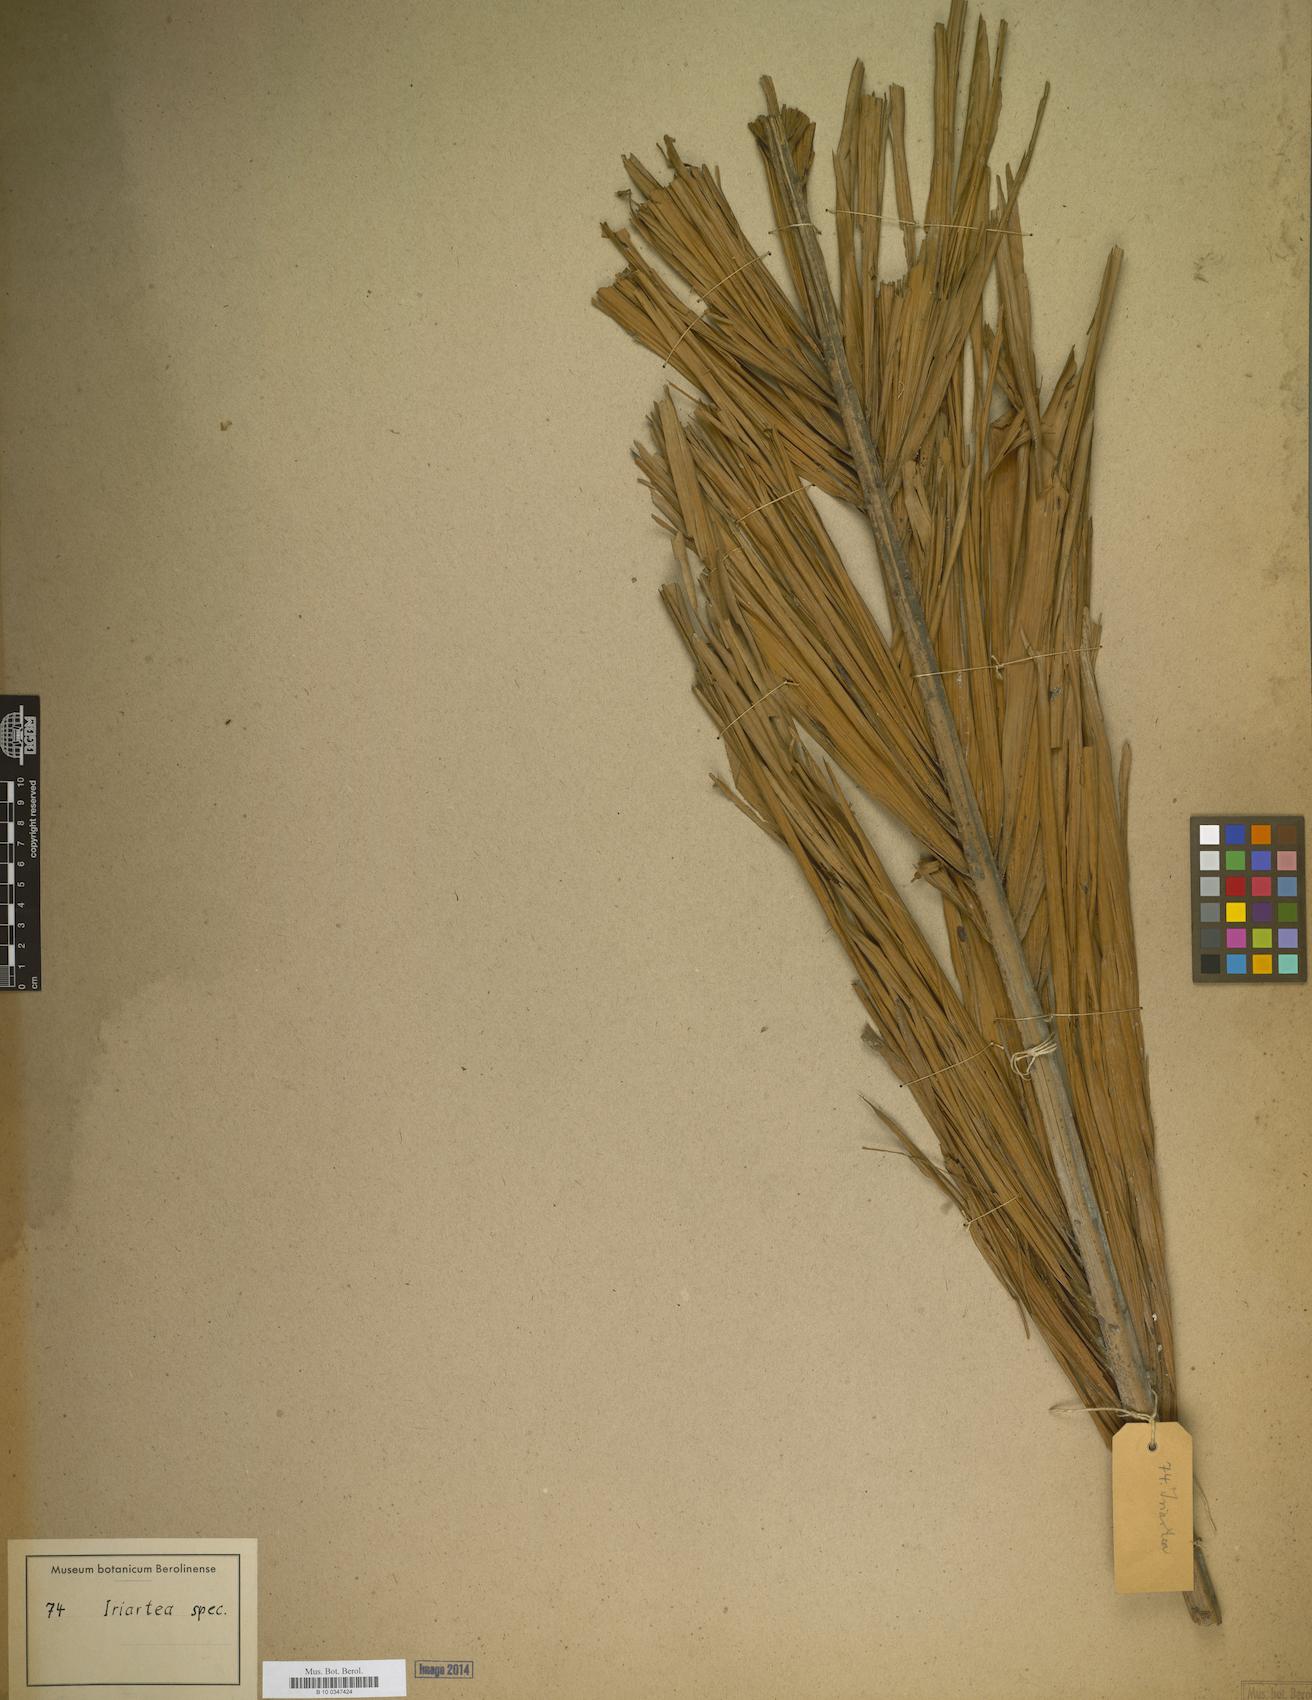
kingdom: Plantae
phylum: Tracheophyta
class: Liliopsida
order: Arecales
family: Arecaceae
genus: Iriartea
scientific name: Iriartea
